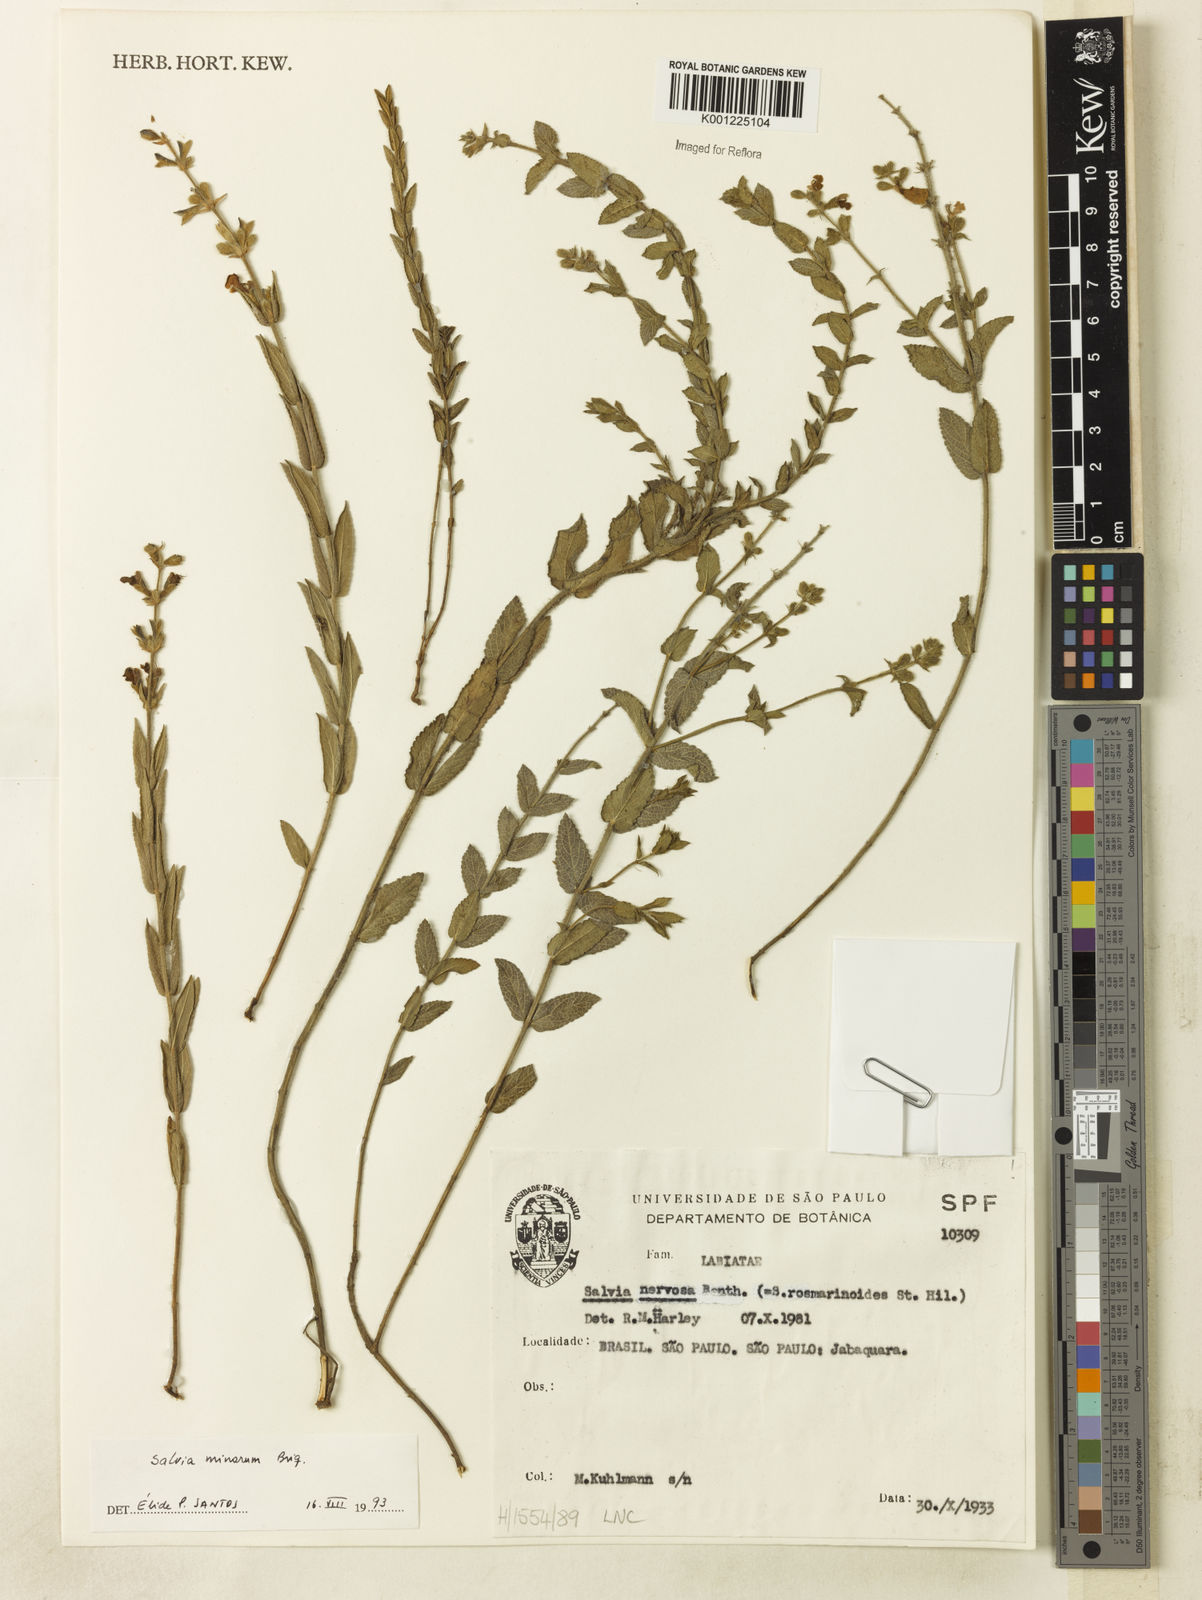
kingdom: Plantae
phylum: Tracheophyta
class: Magnoliopsida
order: Lamiales
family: Lamiaceae
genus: Salvia
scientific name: Salvia minarum
